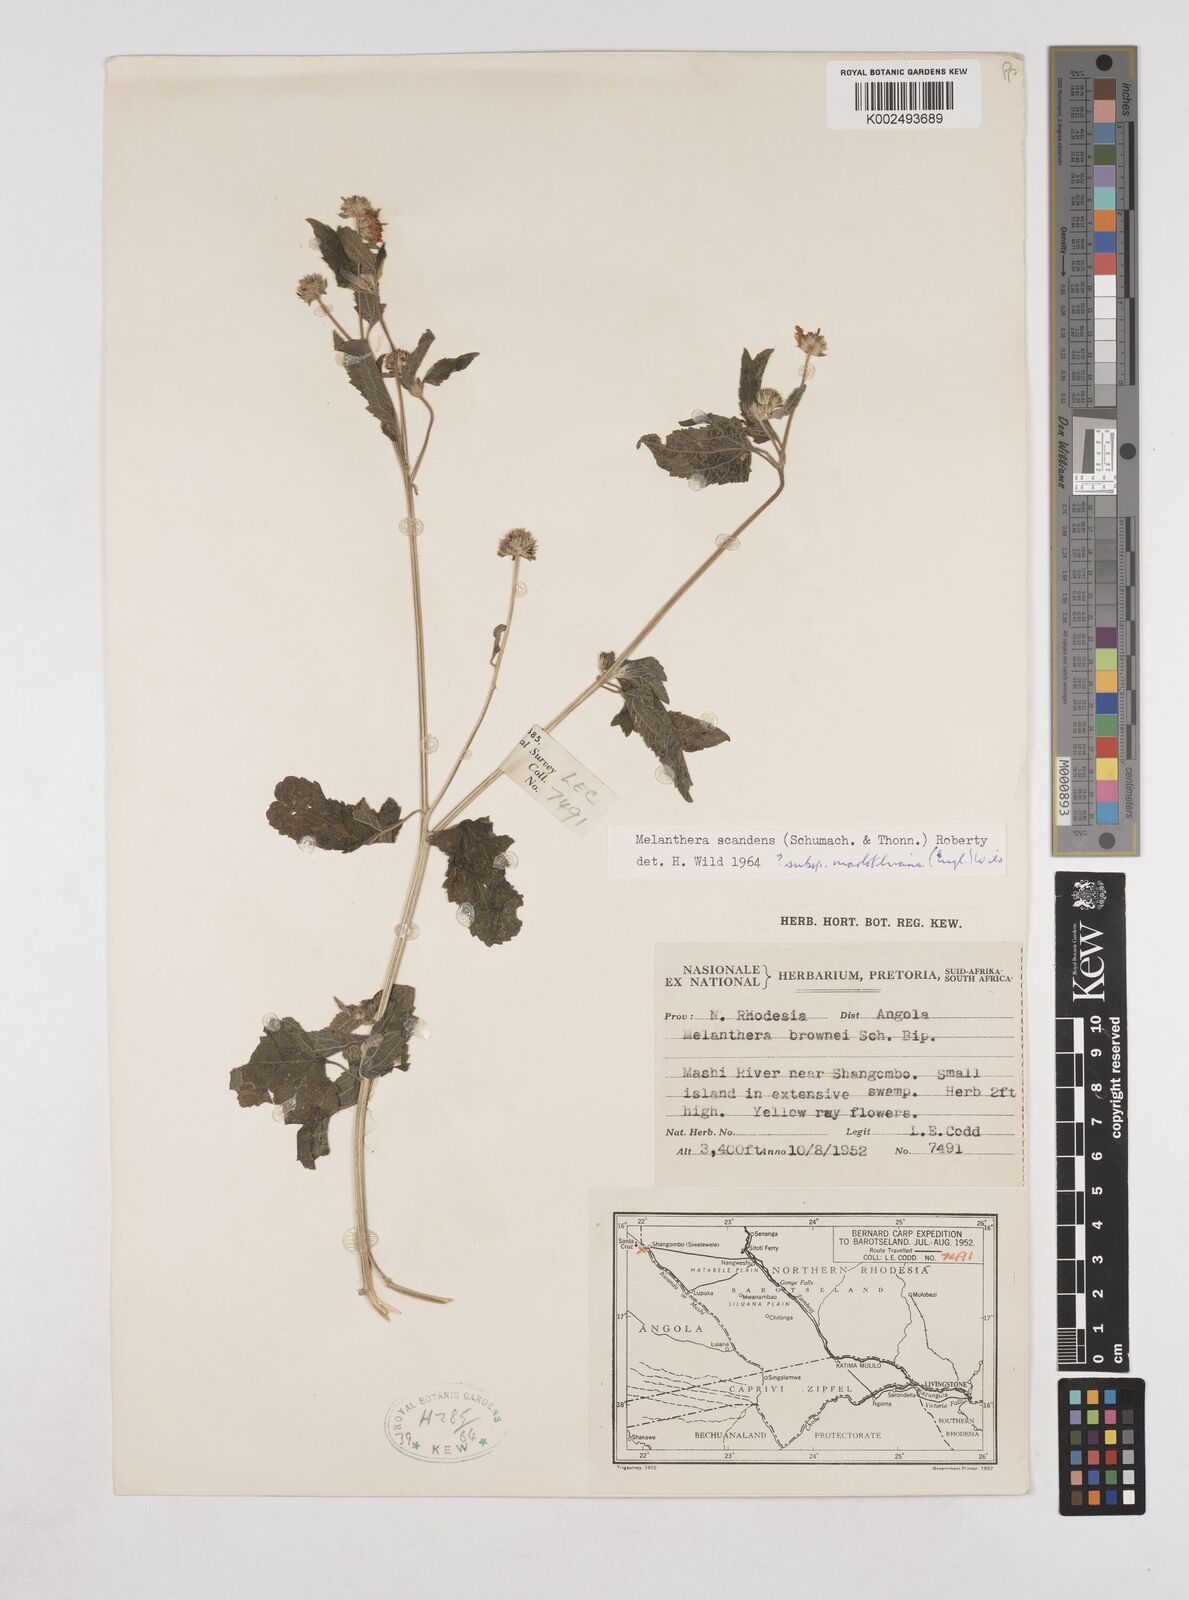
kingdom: Plantae
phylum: Tracheophyta
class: Magnoliopsida
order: Asterales
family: Asteraceae
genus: Lipotriche
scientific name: Lipotriche marlothiana
